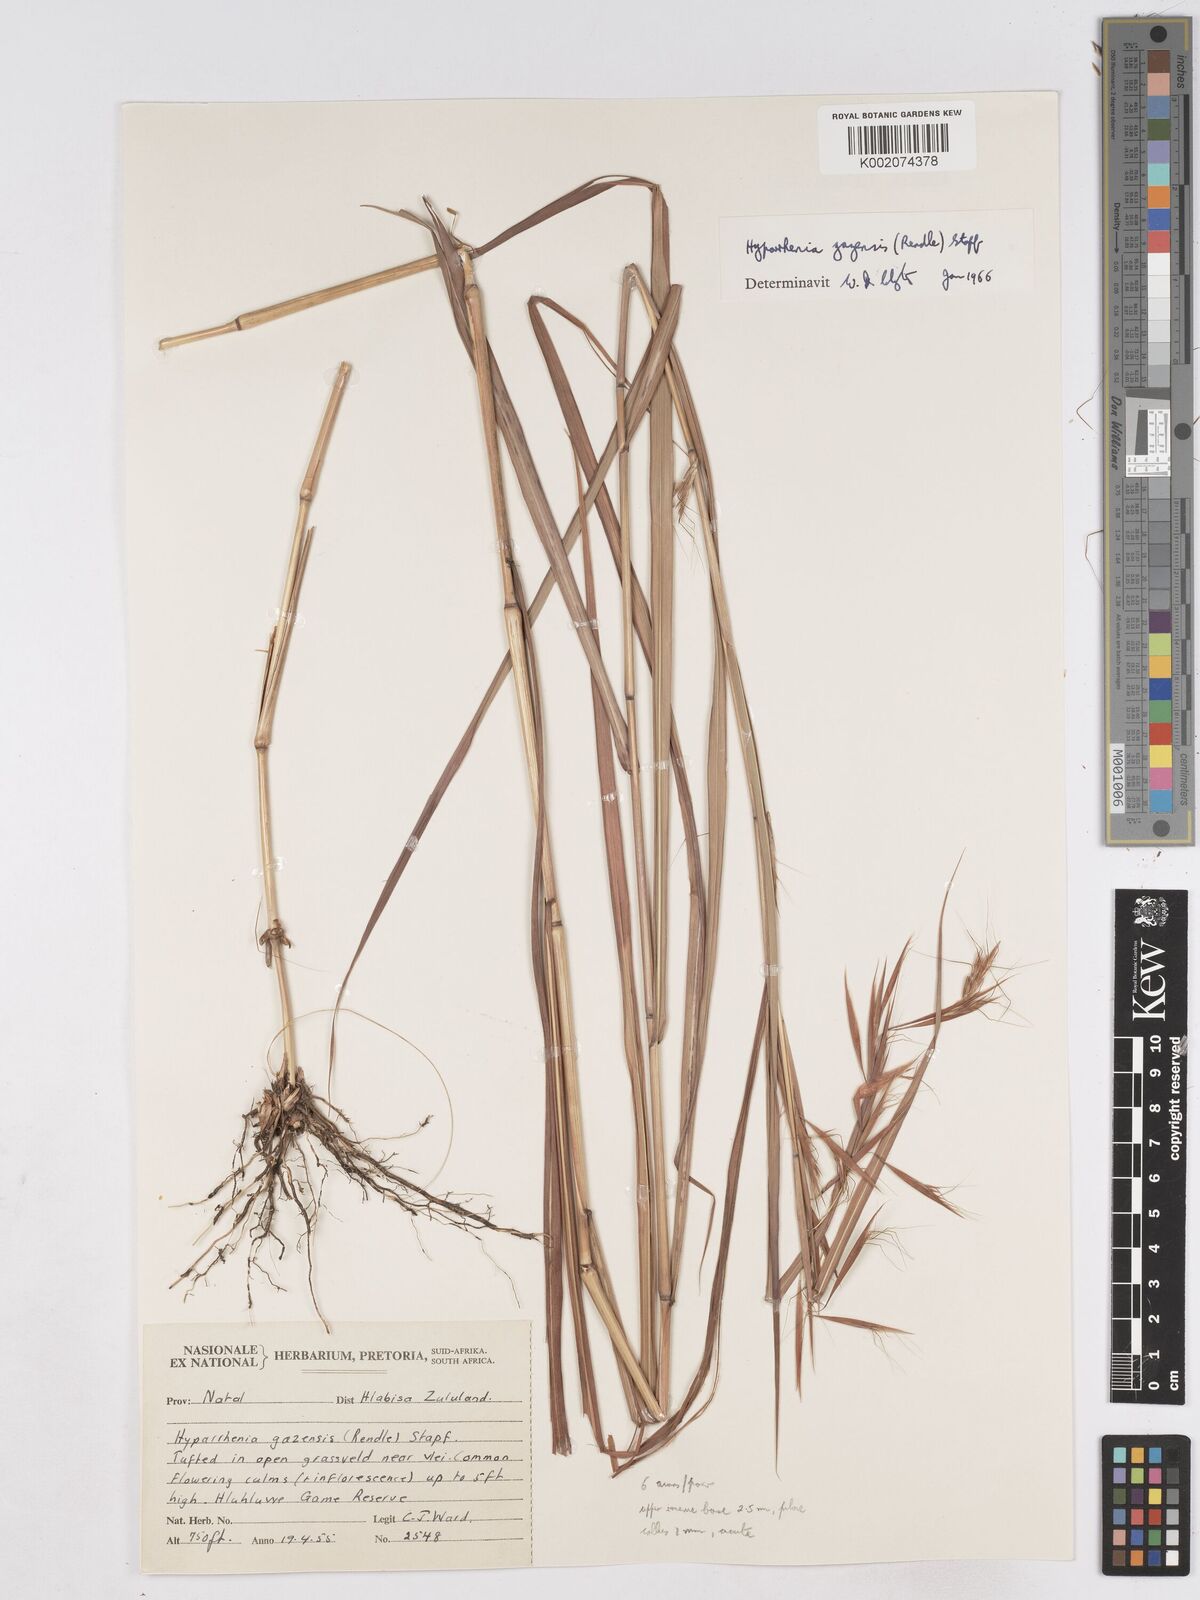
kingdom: Plantae
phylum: Tracheophyta
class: Liliopsida
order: Poales
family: Poaceae
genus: Hyparrhenia
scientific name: Hyparrhenia gazensis
